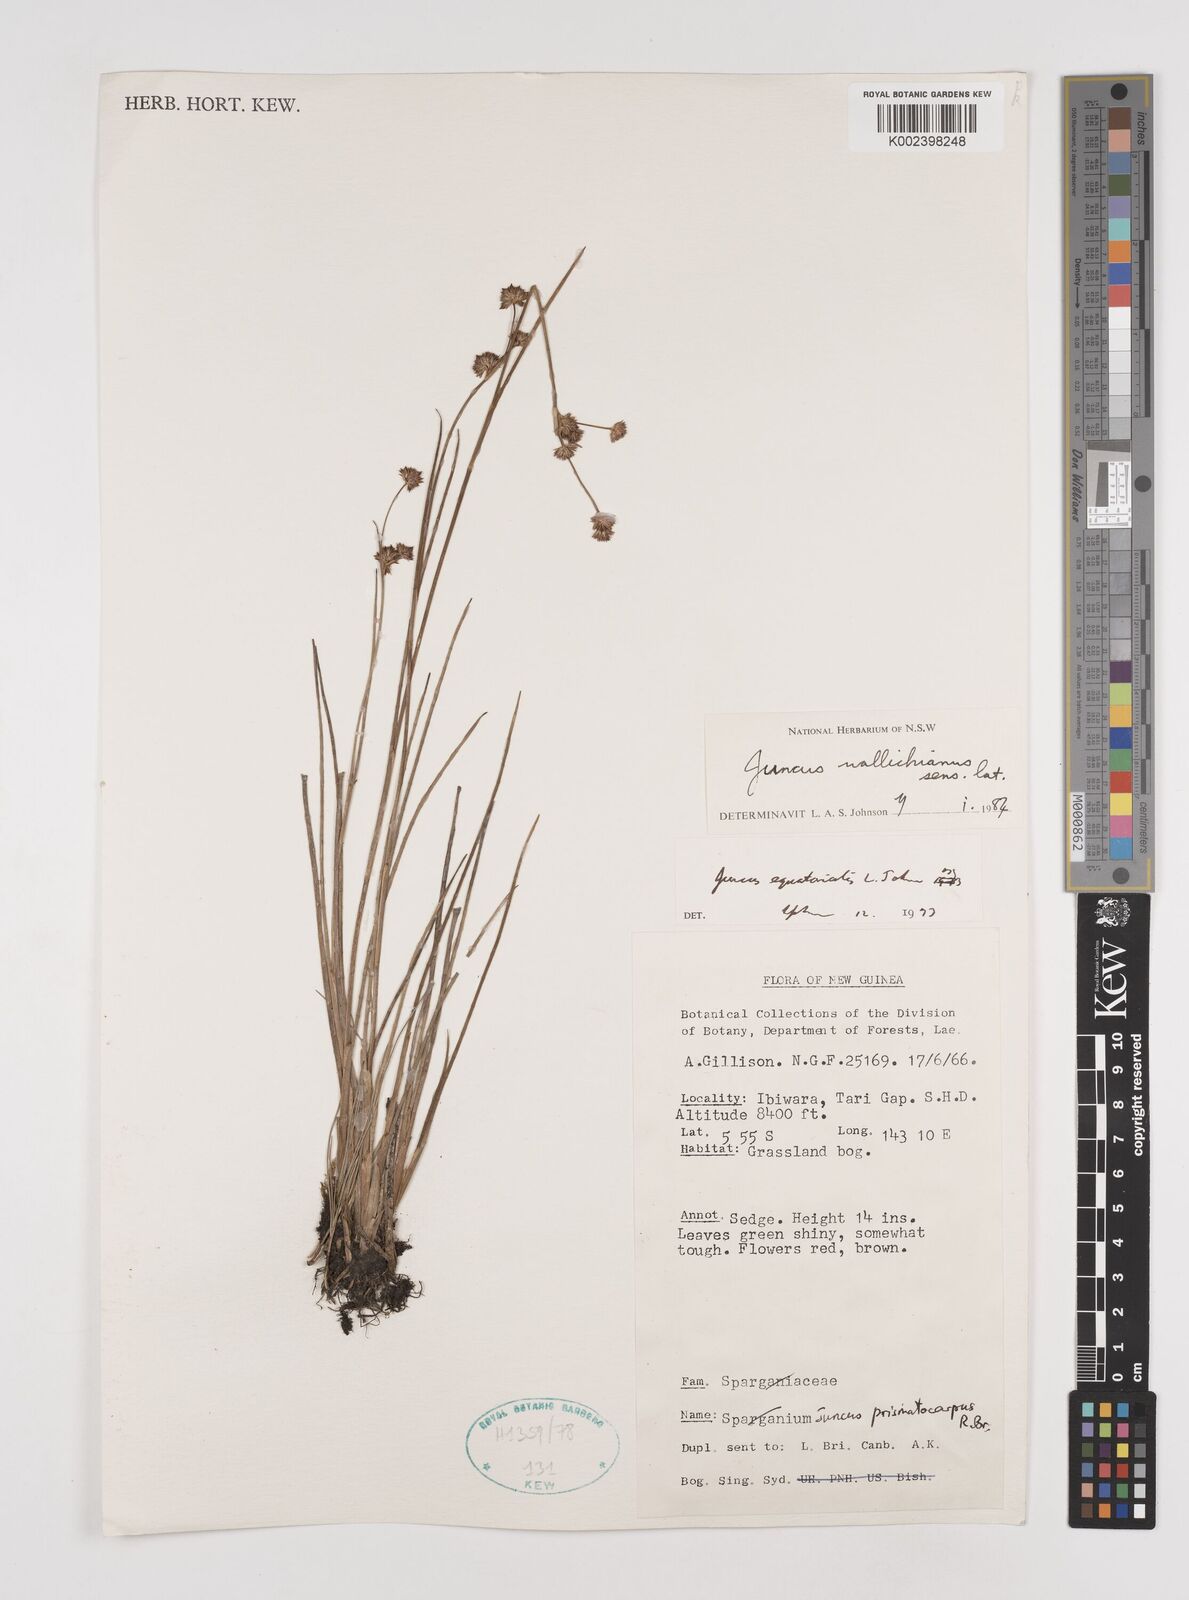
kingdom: Plantae
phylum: Tracheophyta
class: Liliopsida
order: Poales
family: Juncaceae
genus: Juncus
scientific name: Juncus wallichianus
